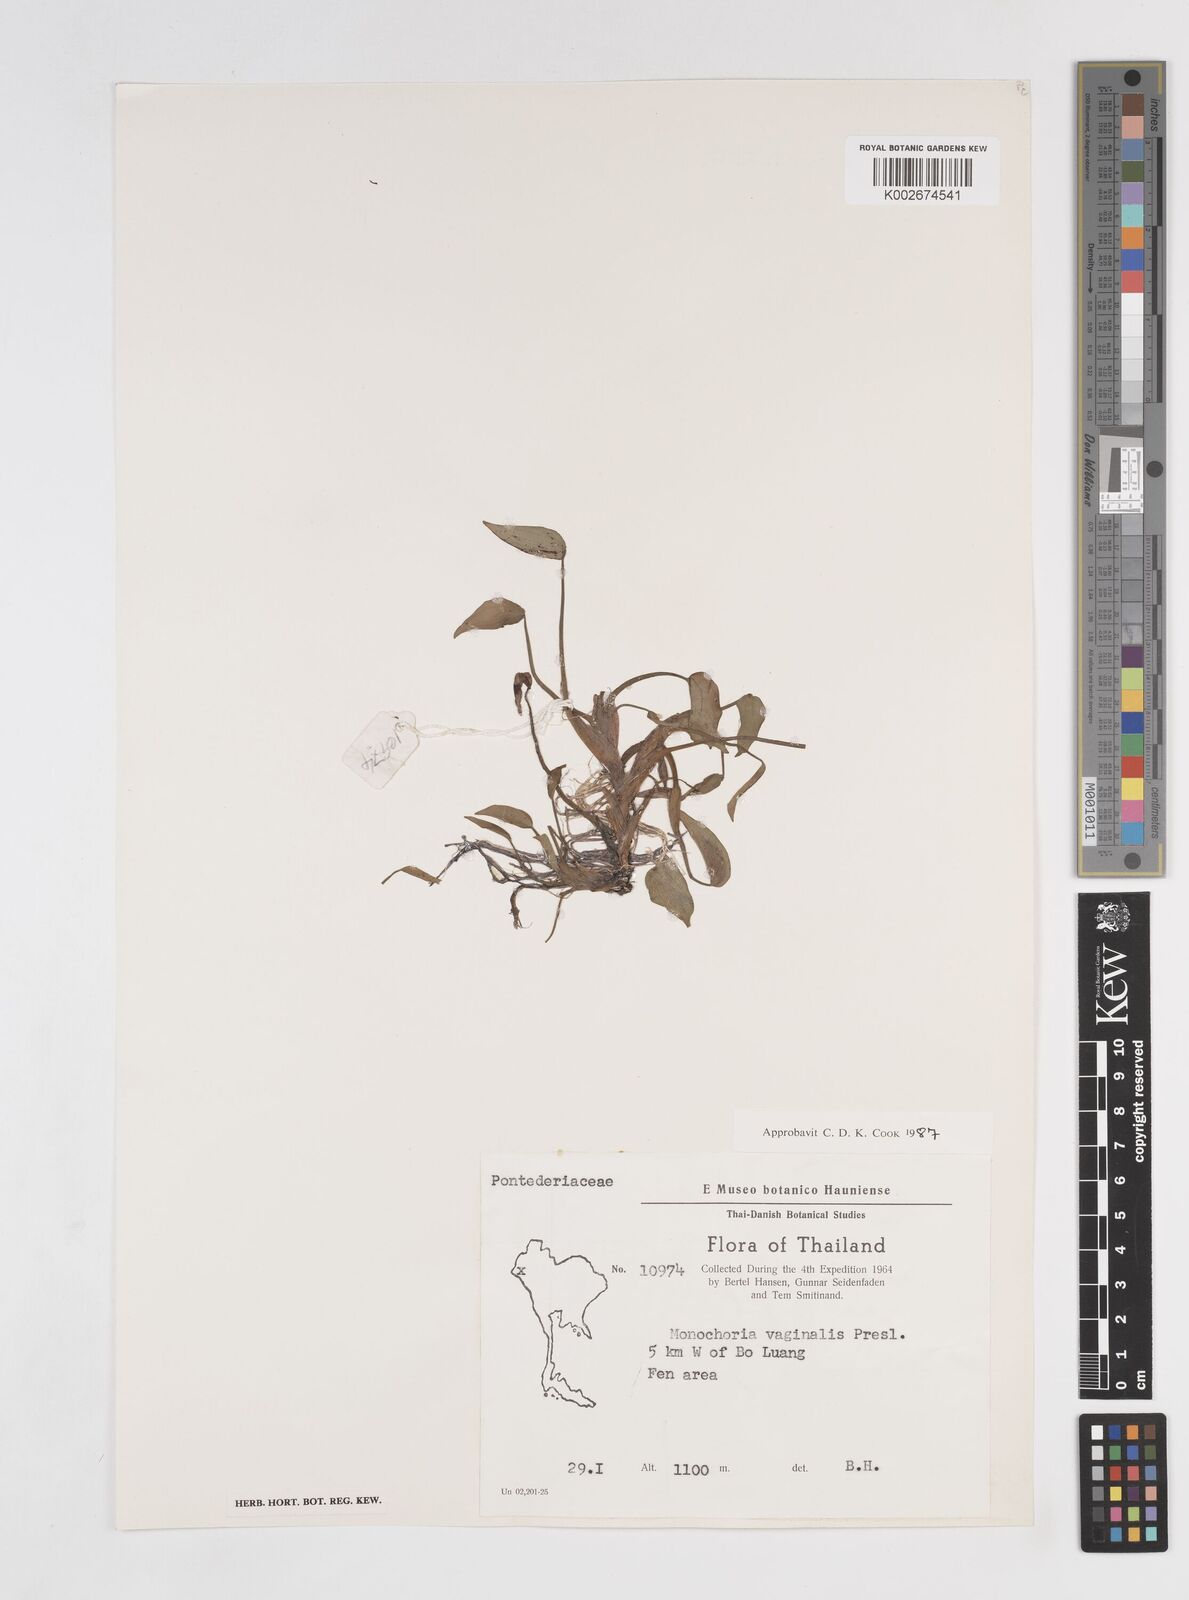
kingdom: Plantae
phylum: Tracheophyta
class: Liliopsida
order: Commelinales
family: Pontederiaceae
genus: Pontederia
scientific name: Pontederia vaginalis
